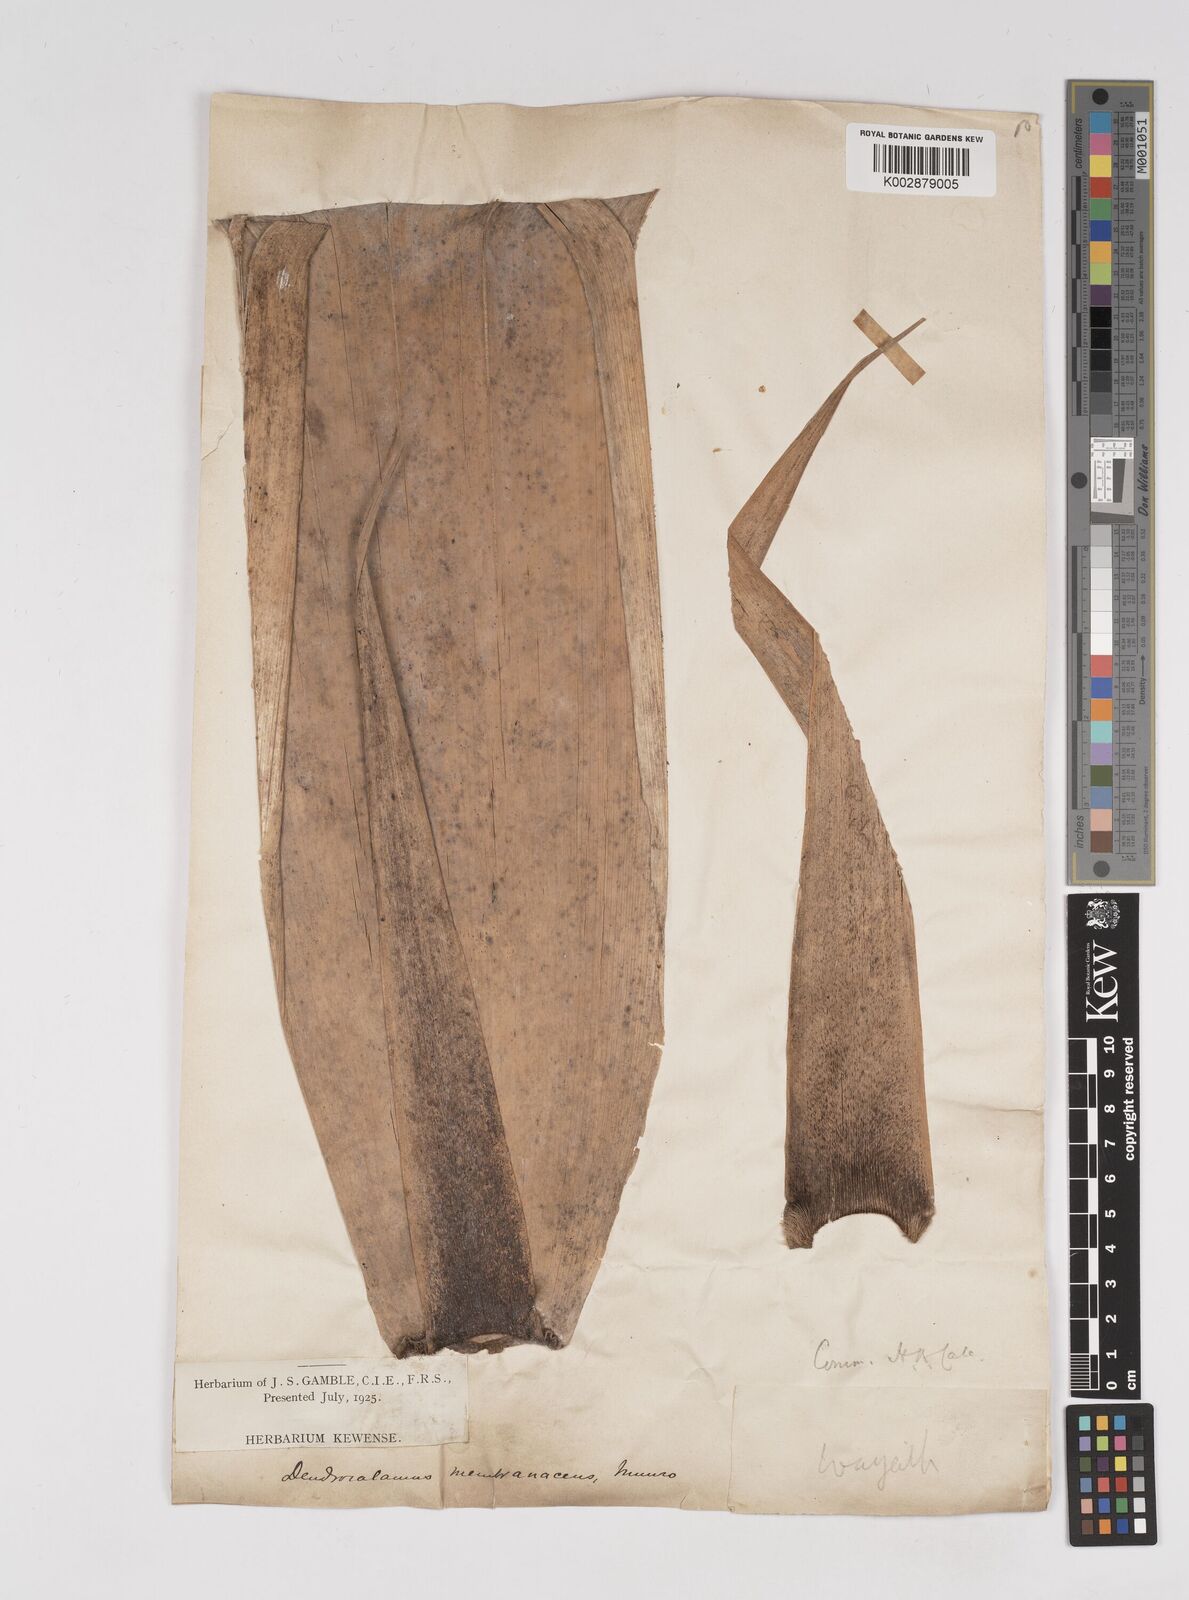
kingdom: Plantae
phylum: Tracheophyta
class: Liliopsida
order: Poales
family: Poaceae
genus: Dendrocalamus
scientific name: Dendrocalamus membranaceus
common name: White bamboo
